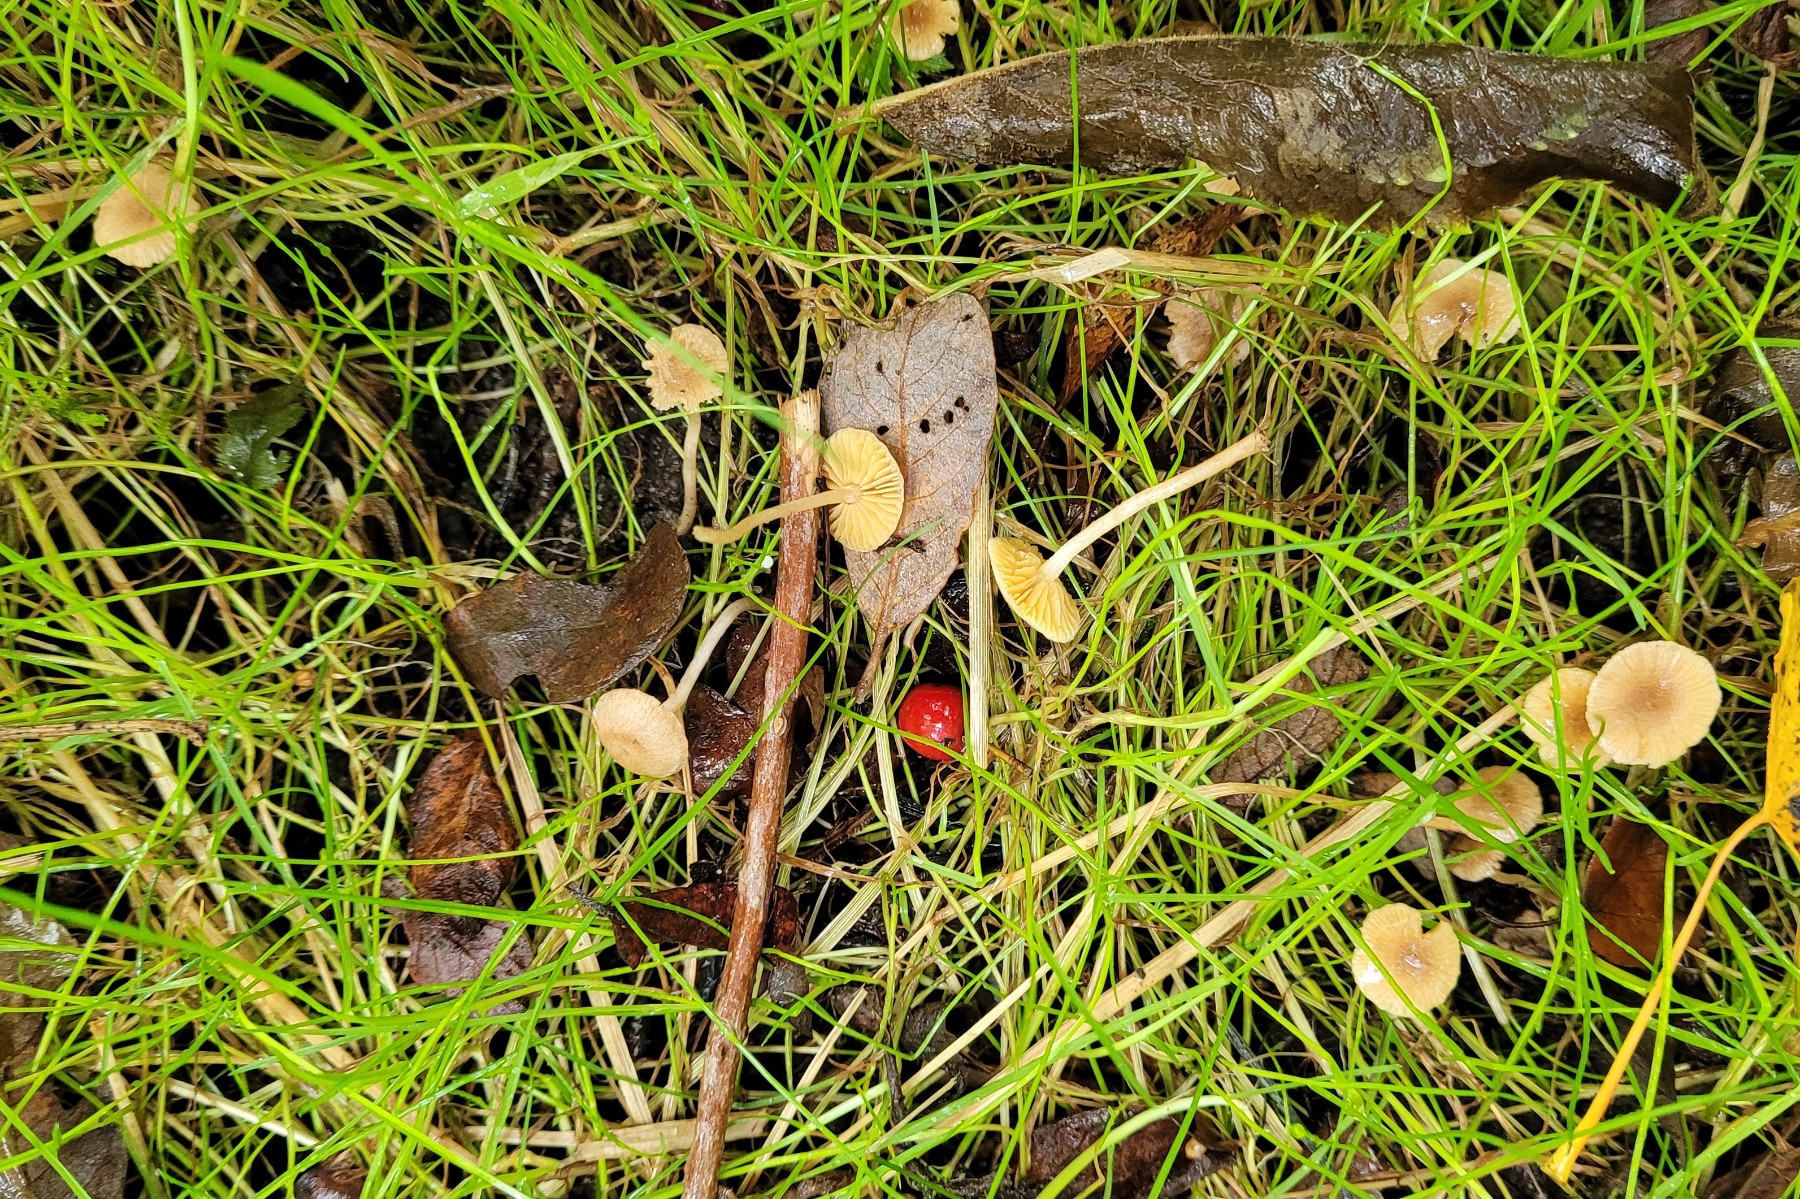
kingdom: Fungi
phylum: Basidiomycota
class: Agaricomycetes
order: Agaricales
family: Tubariaceae
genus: Tubaria
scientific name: Tubaria dispersa
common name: tjørne-fnughat
